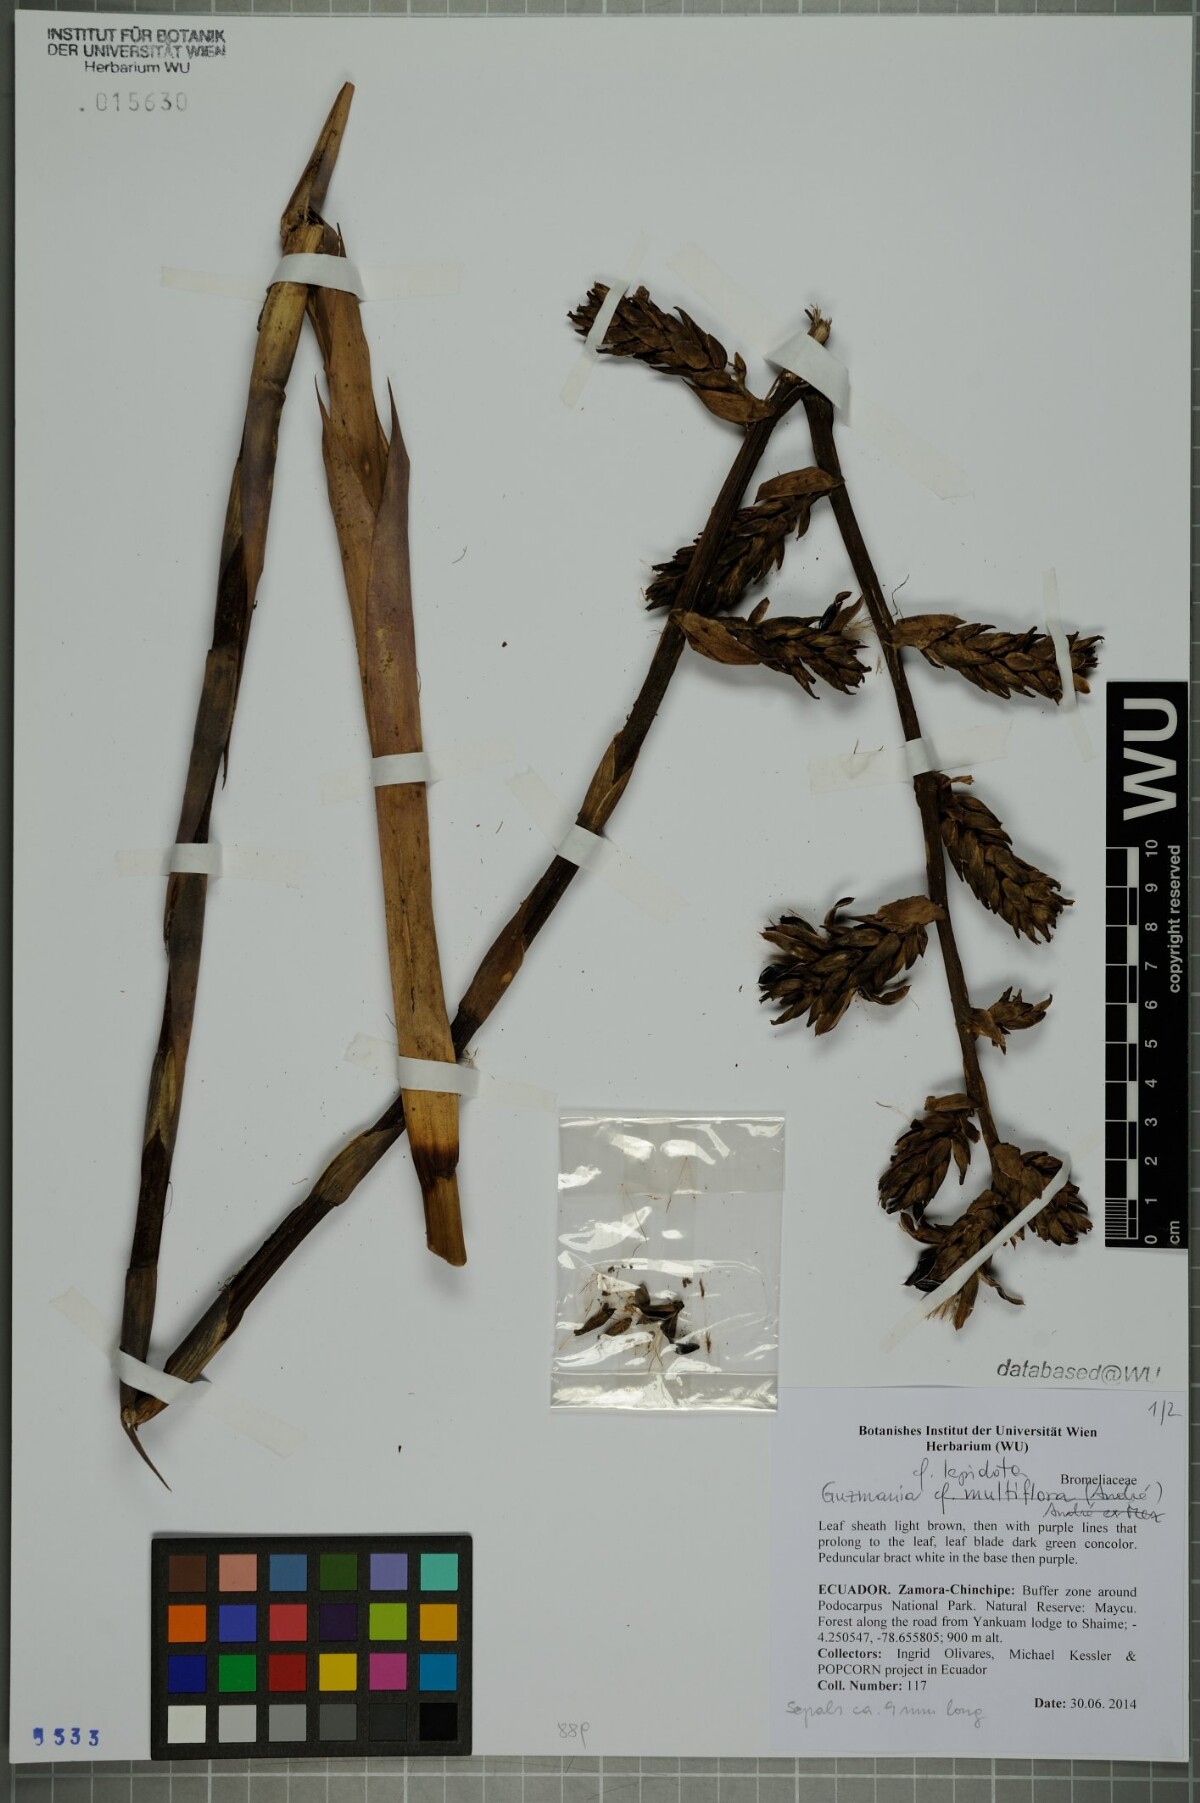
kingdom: Plantae
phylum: Tracheophyta
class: Liliopsida
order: Poales
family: Bromeliaceae
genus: Guzmania
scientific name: Guzmania lepidota
